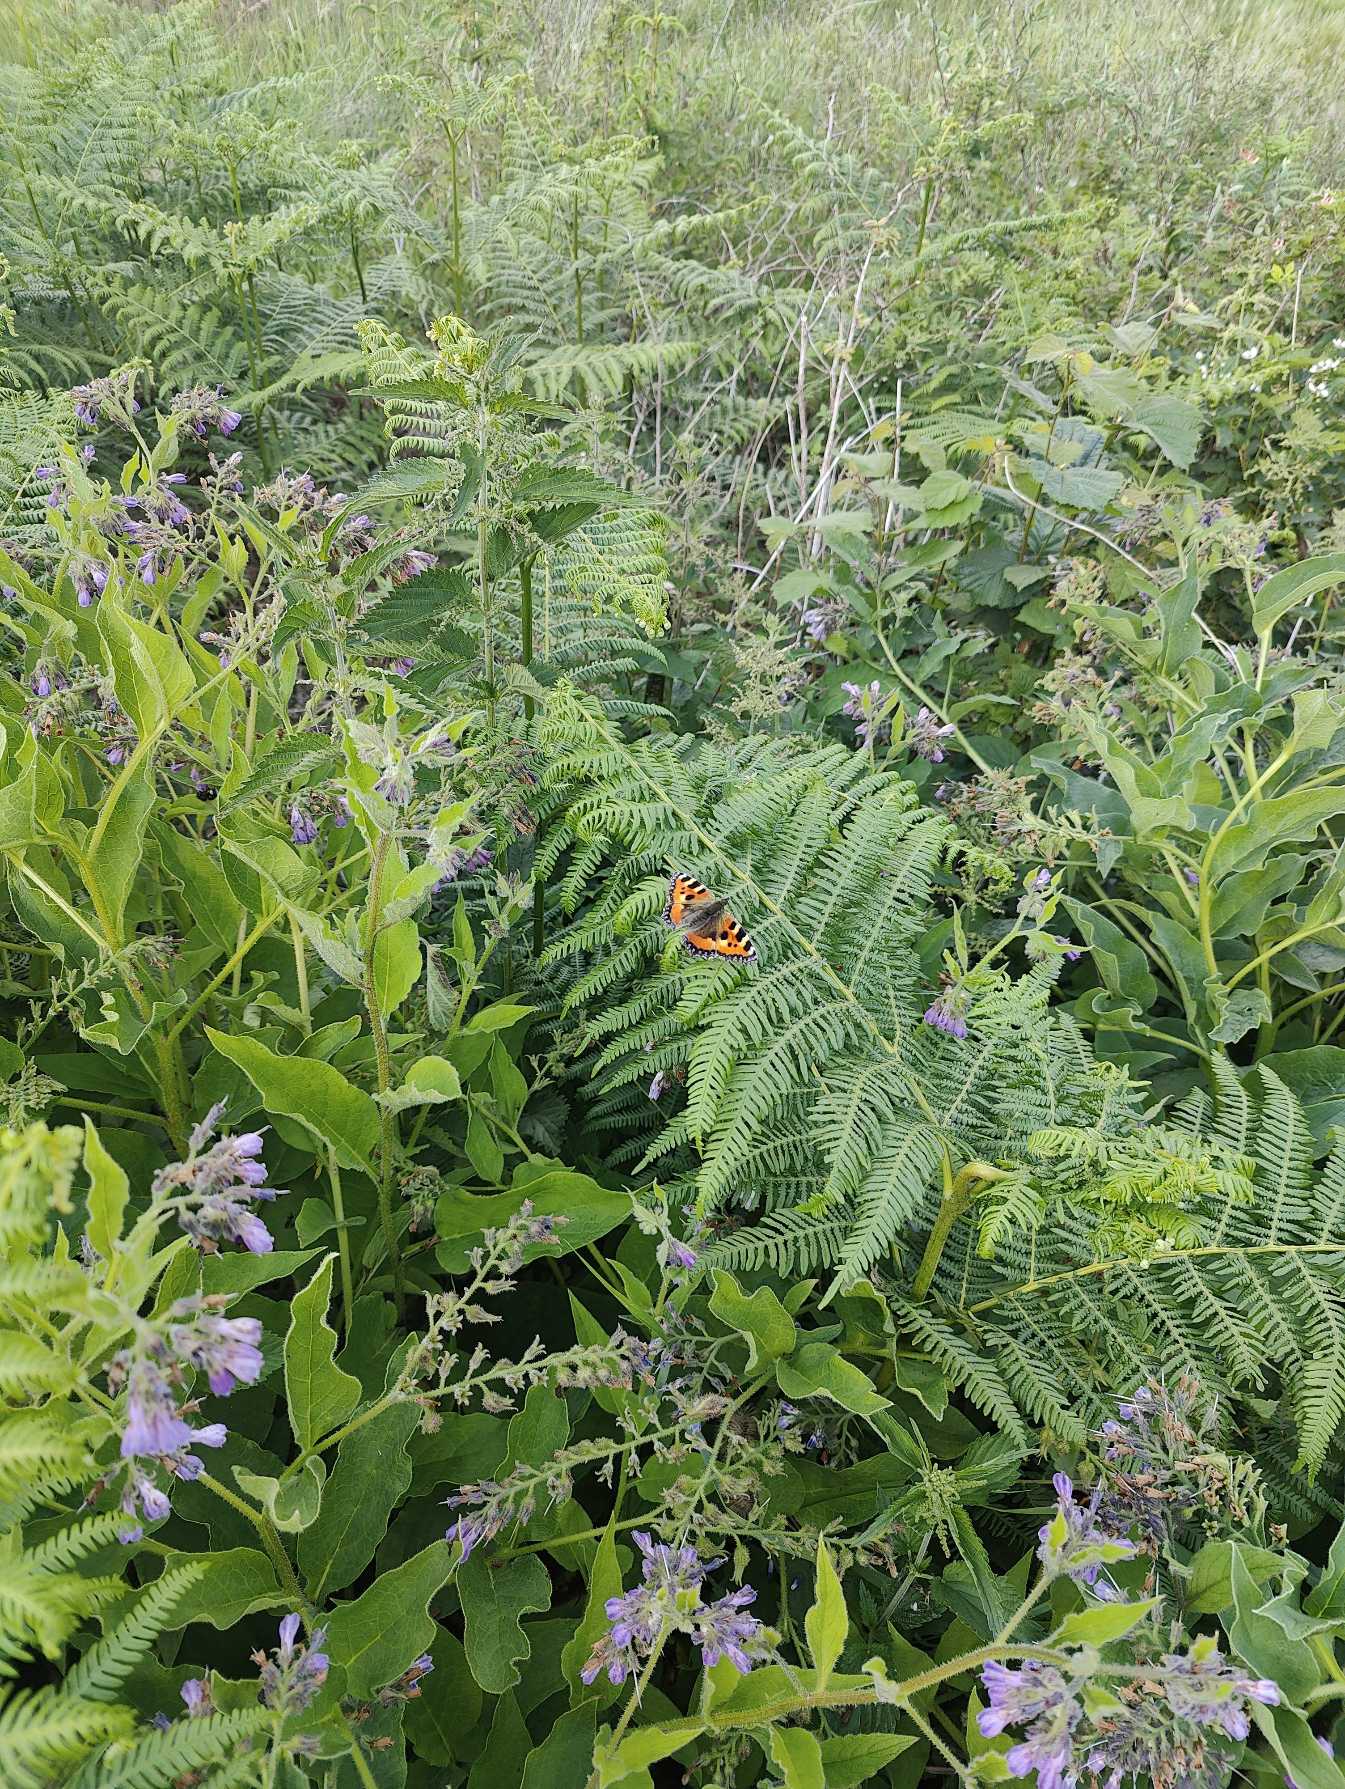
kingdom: Animalia
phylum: Arthropoda
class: Insecta
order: Lepidoptera
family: Nymphalidae
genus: Aglais
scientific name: Aglais urticae
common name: Nældens takvinge
